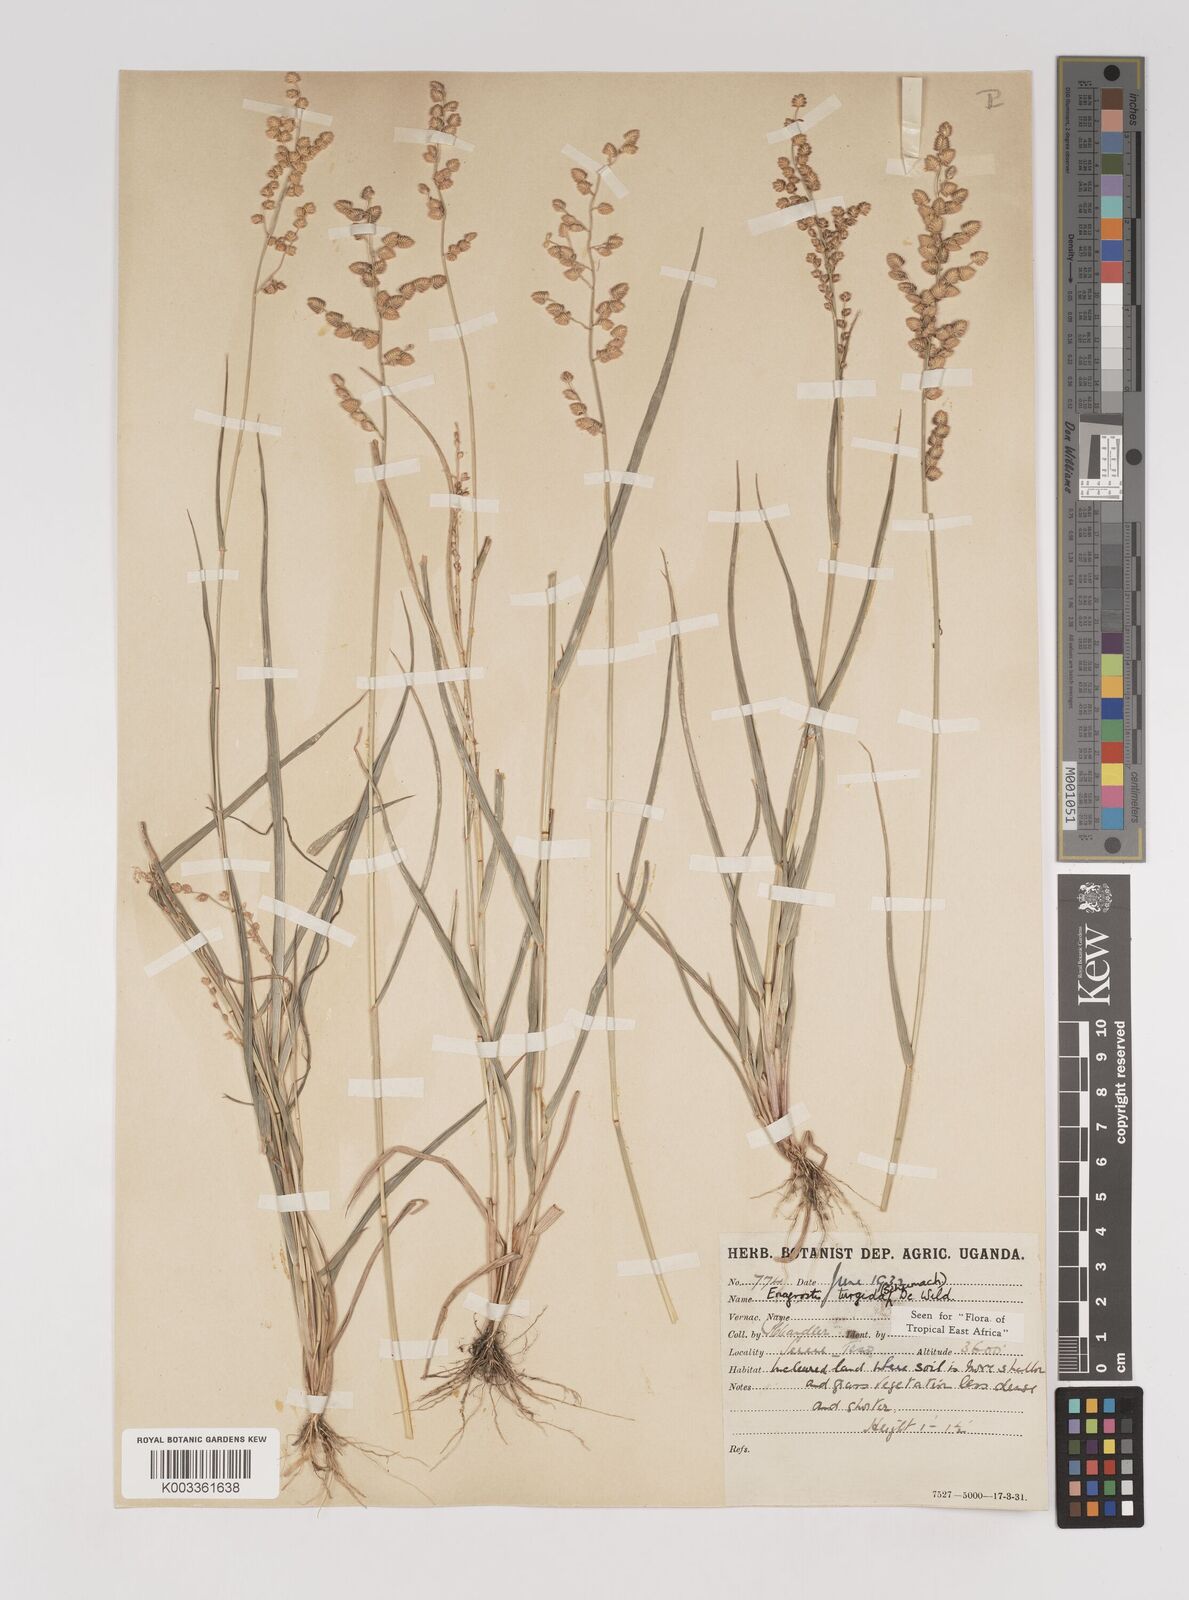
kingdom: Plantae
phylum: Tracheophyta
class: Liliopsida
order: Poales
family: Poaceae
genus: Eragrostis
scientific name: Eragrostis turgida
